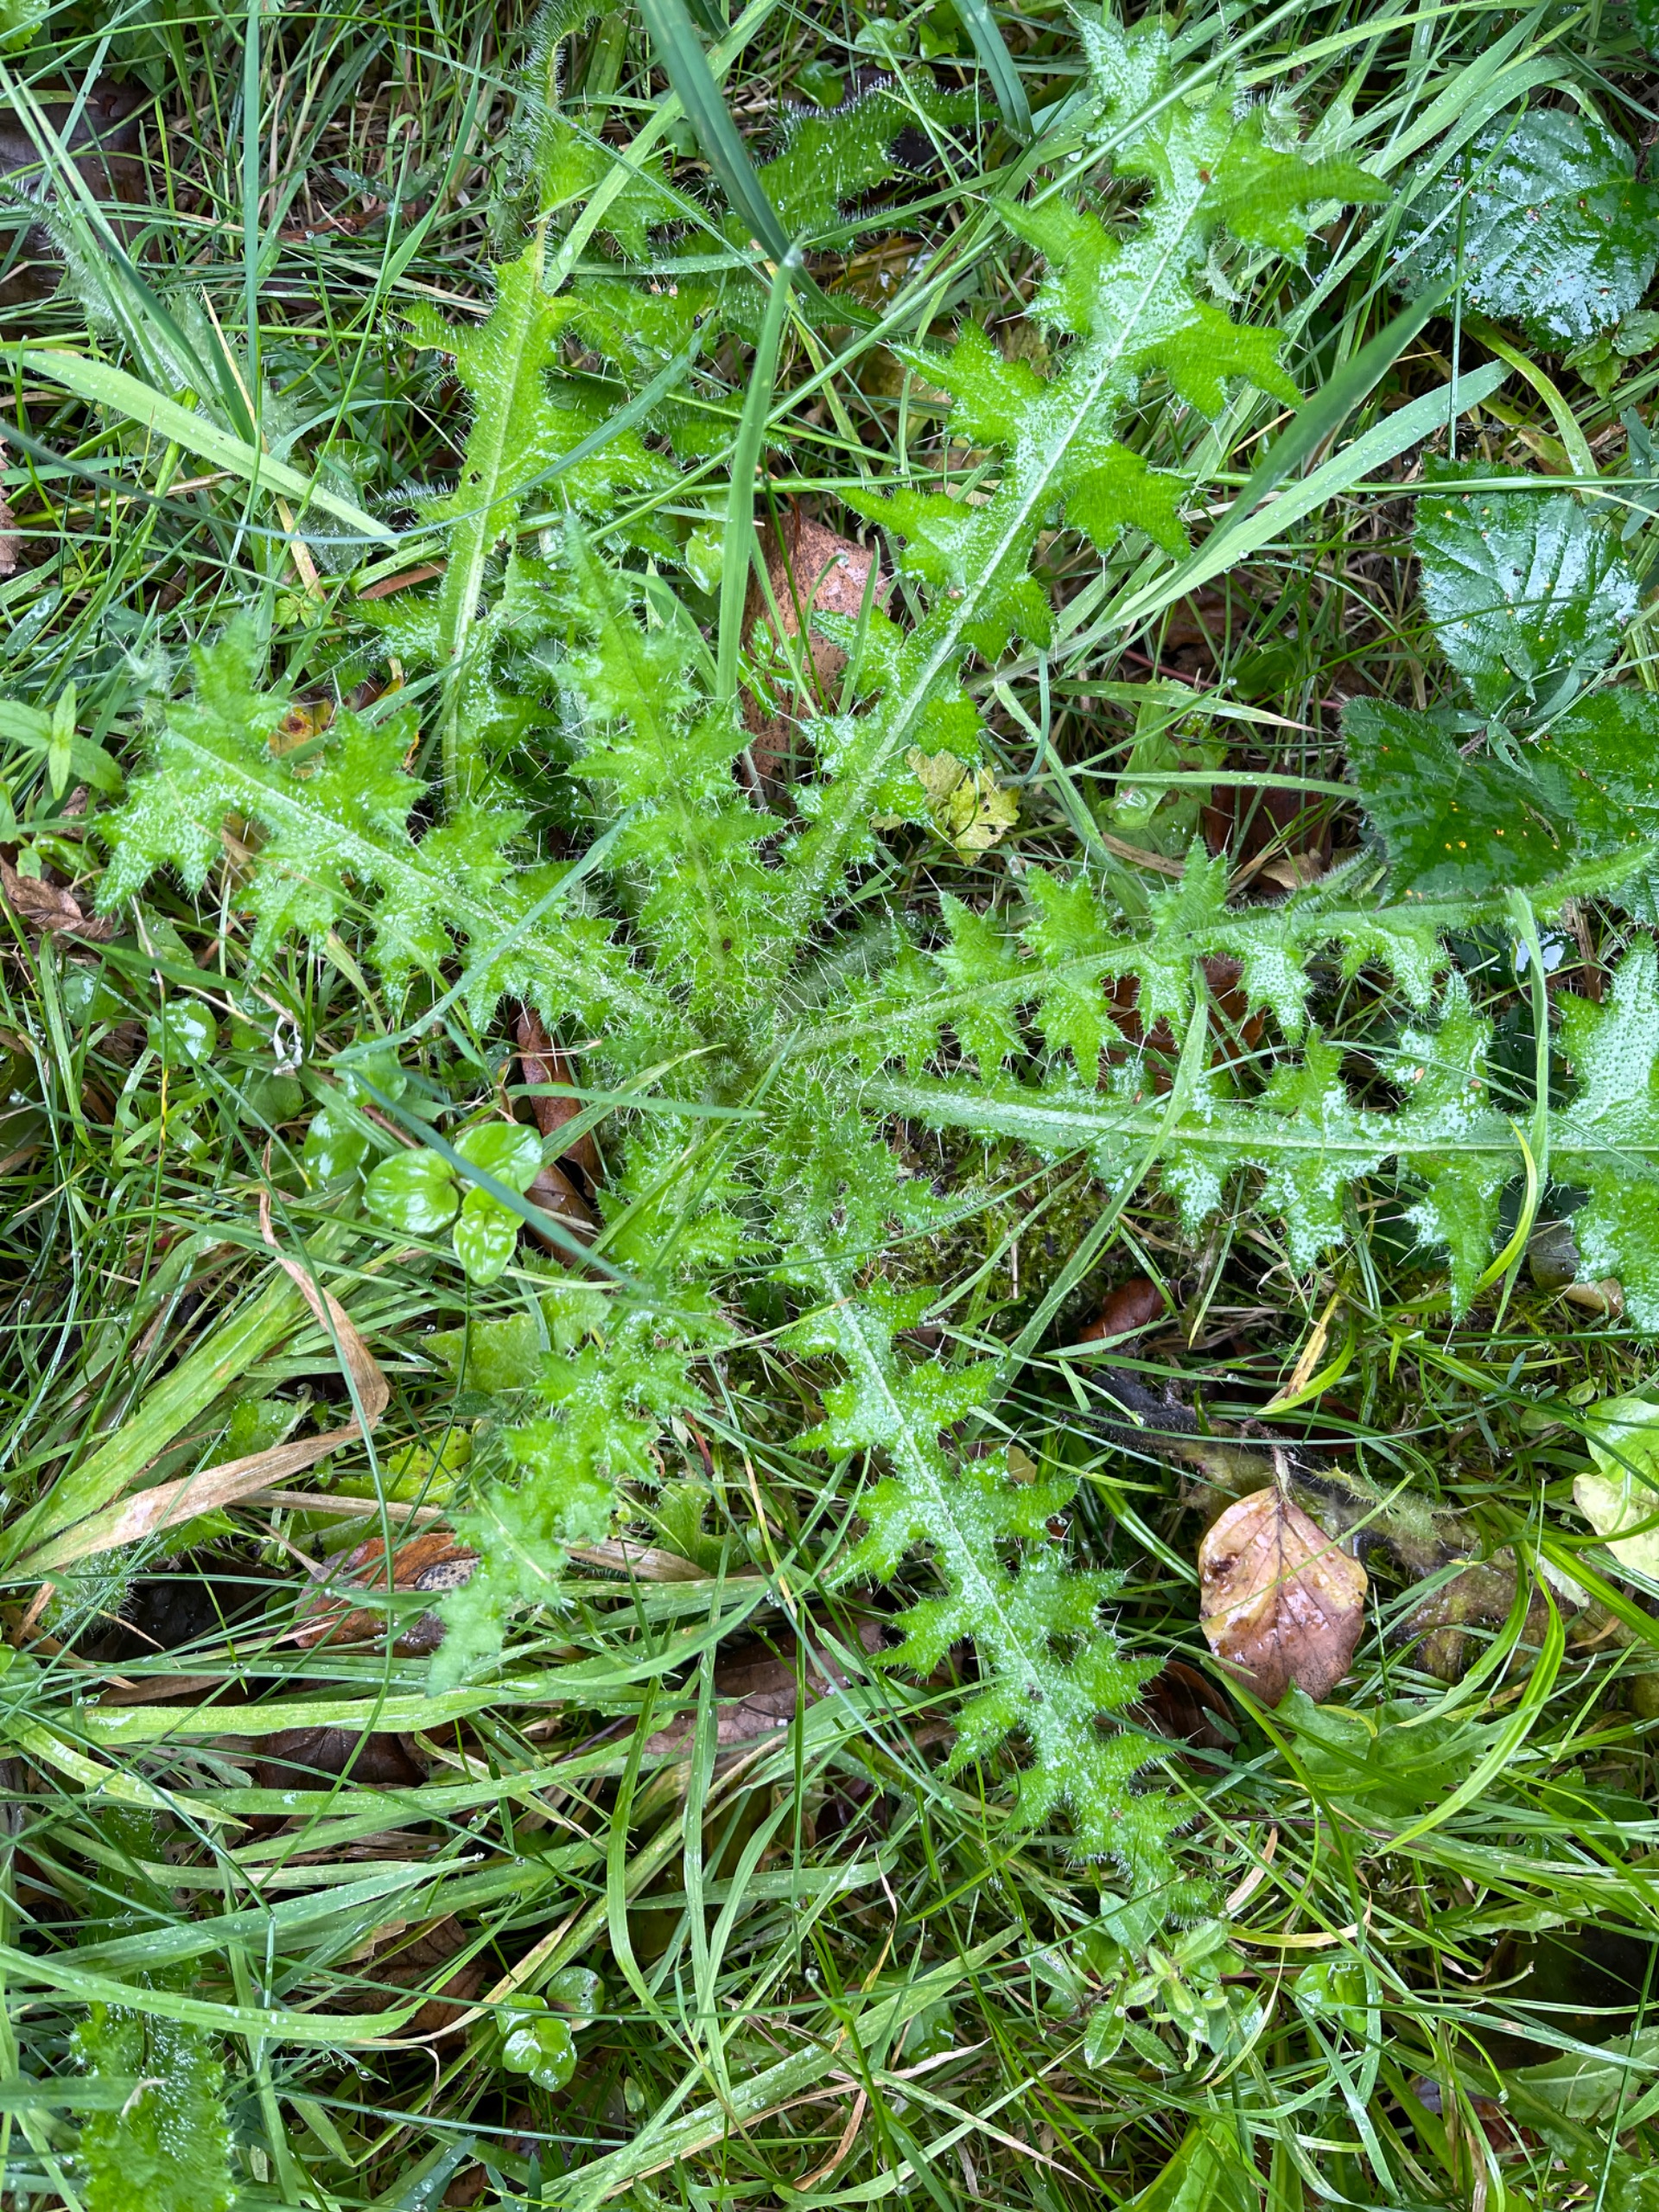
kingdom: Plantae
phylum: Tracheophyta
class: Magnoliopsida
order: Asterales
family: Asteraceae
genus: Cirsium
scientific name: Cirsium palustre
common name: Kær-tidsel
